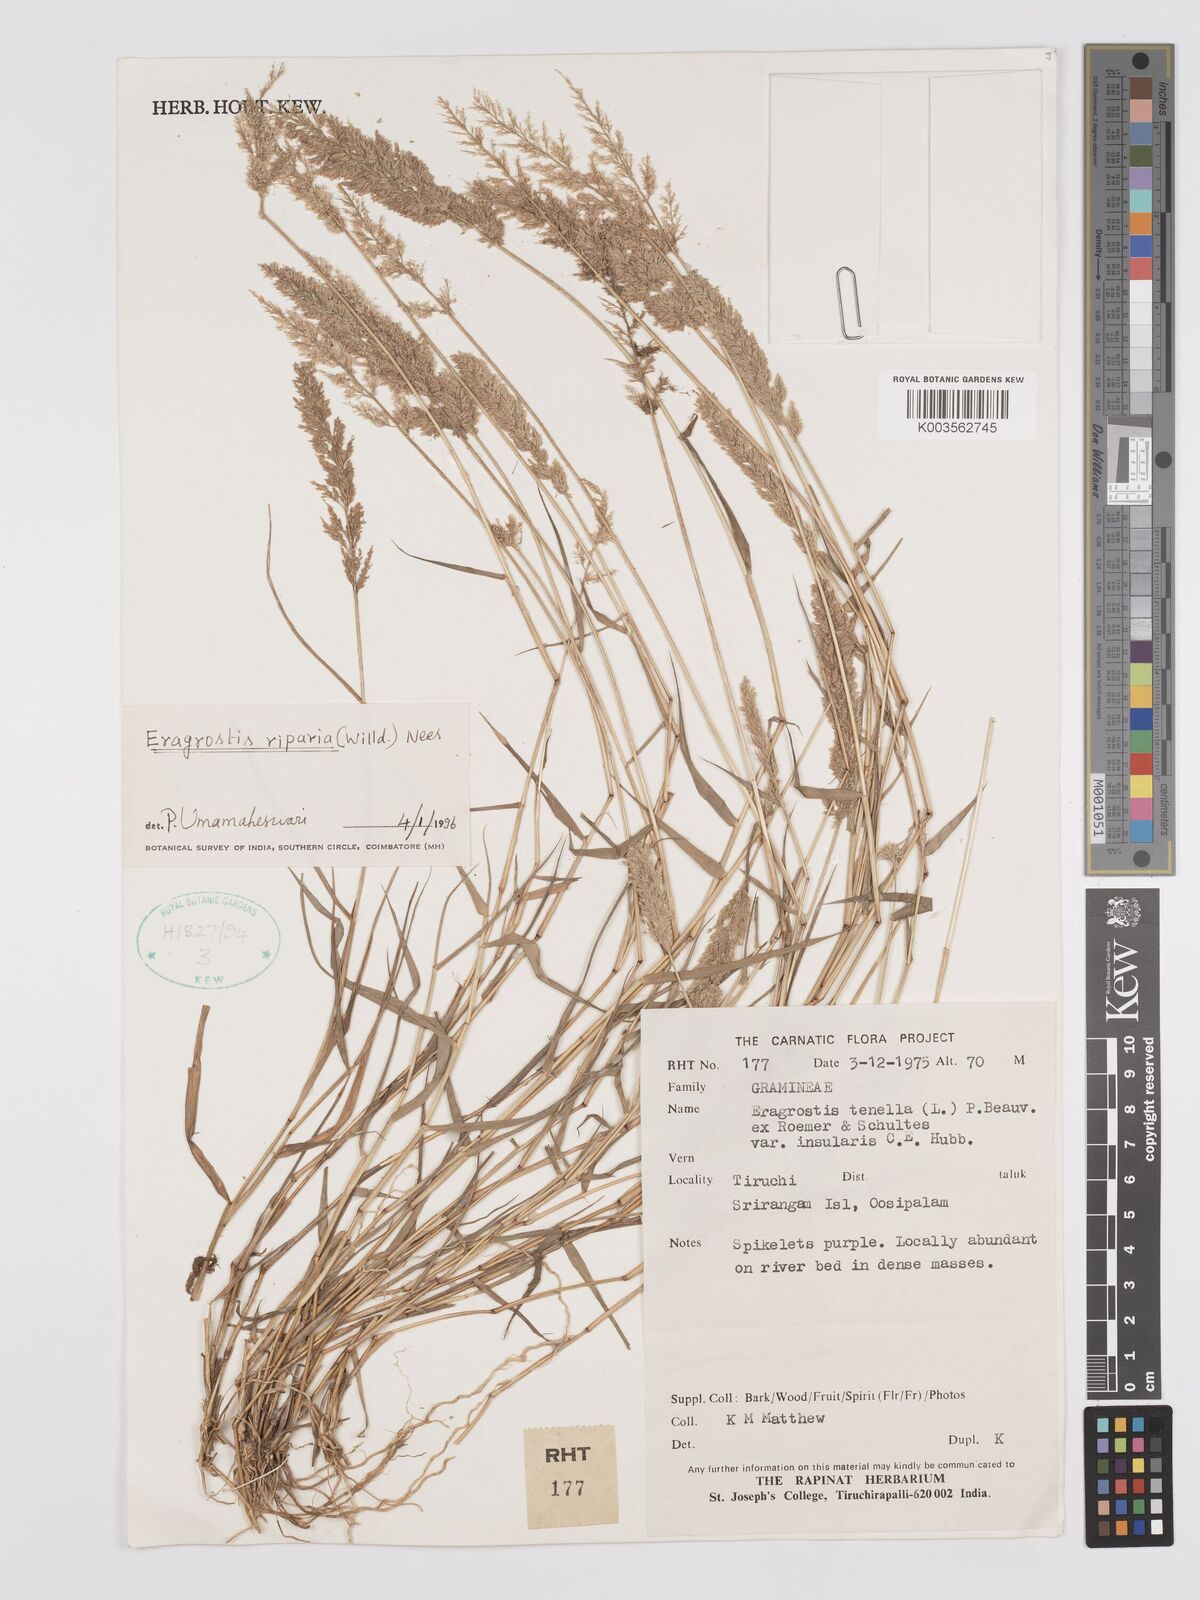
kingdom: Plantae
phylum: Tracheophyta
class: Liliopsida
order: Poales
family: Poaceae
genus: Eragrostis
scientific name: Eragrostis riparia
